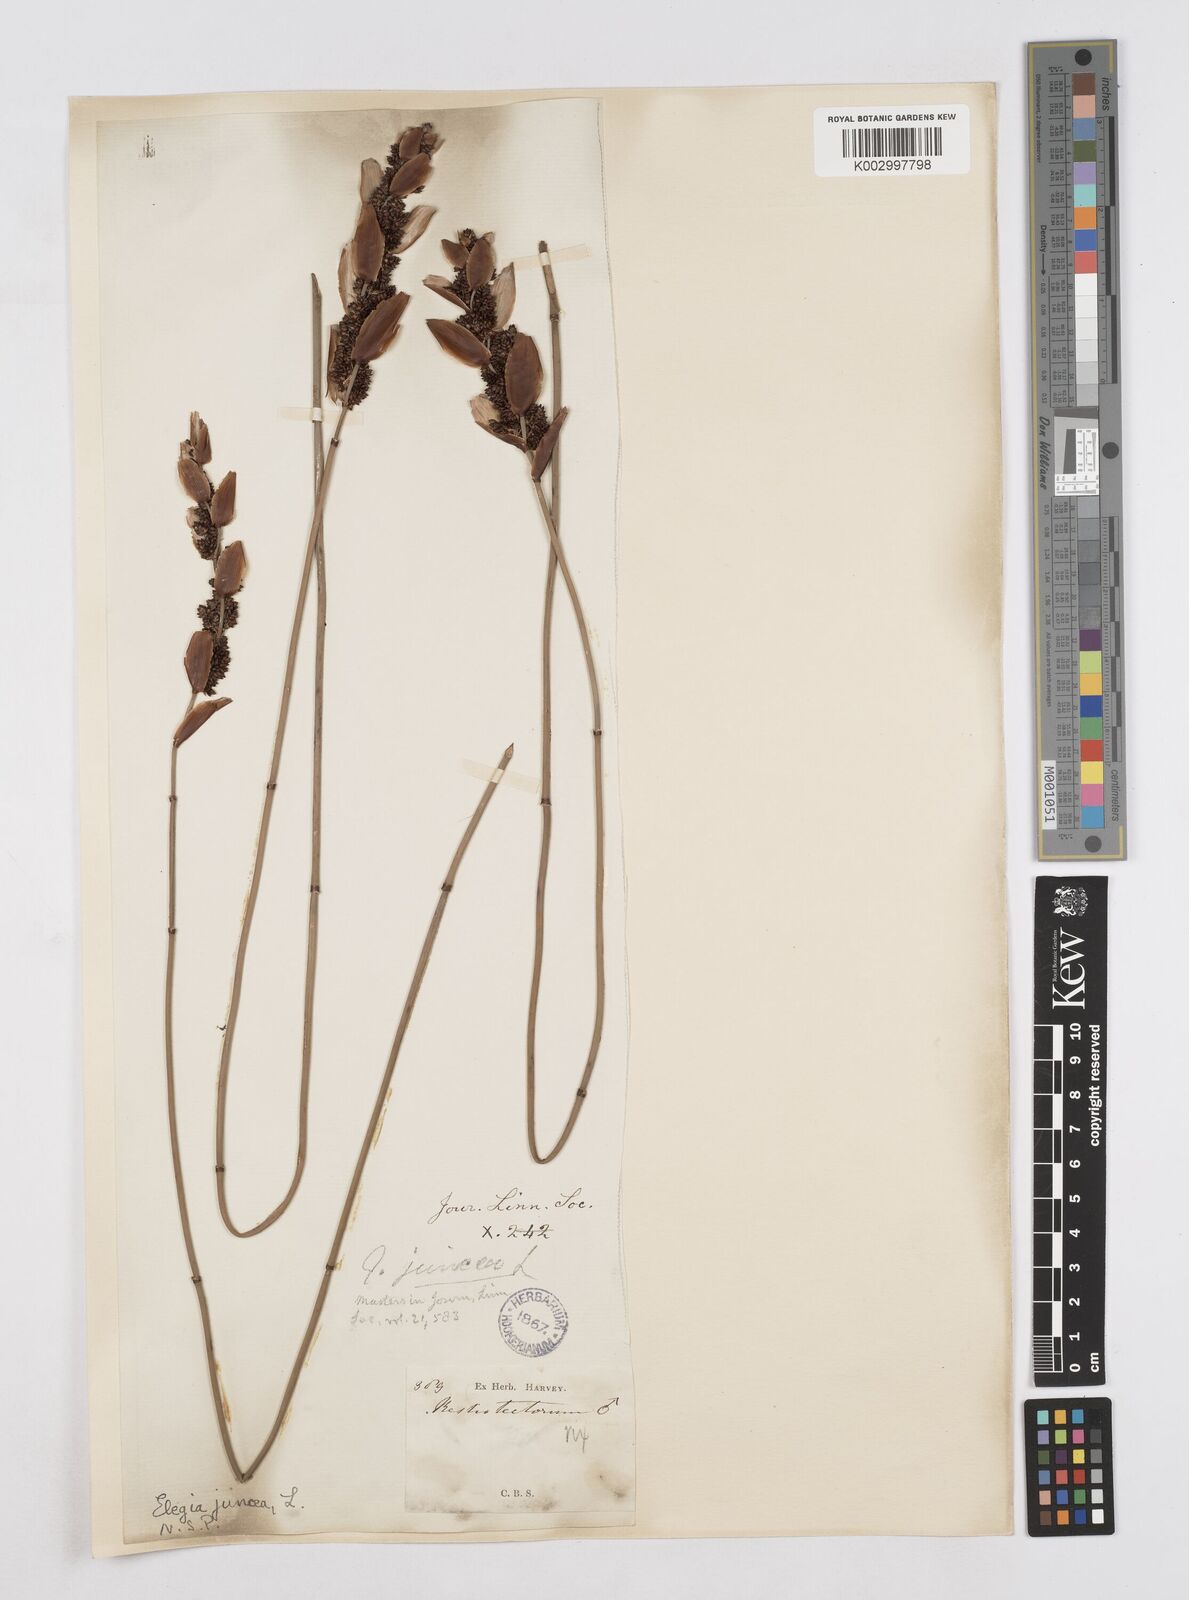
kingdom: Plantae
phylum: Tracheophyta
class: Liliopsida
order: Poales
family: Restionaceae
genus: Elegia
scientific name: Elegia juncea
